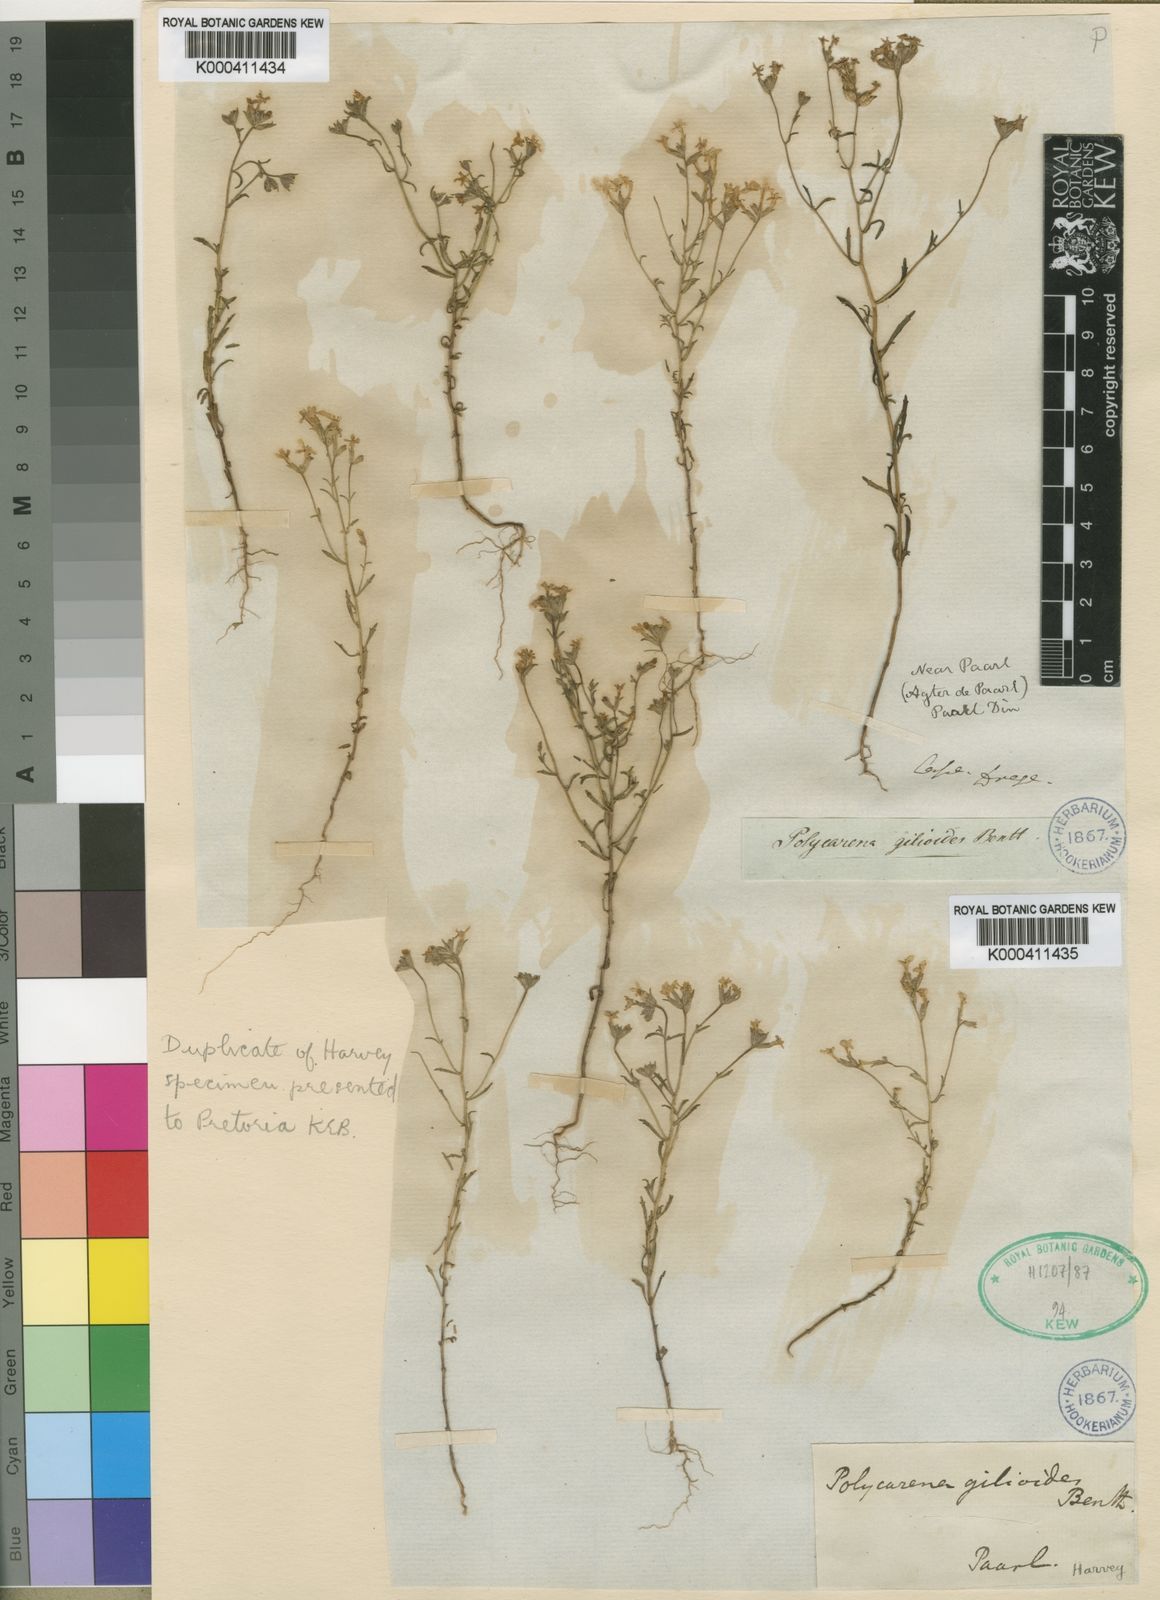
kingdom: Plantae
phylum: Tracheophyta
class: Magnoliopsida
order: Lamiales
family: Scrophulariaceae
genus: Polycarena
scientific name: Polycarena gilioides
